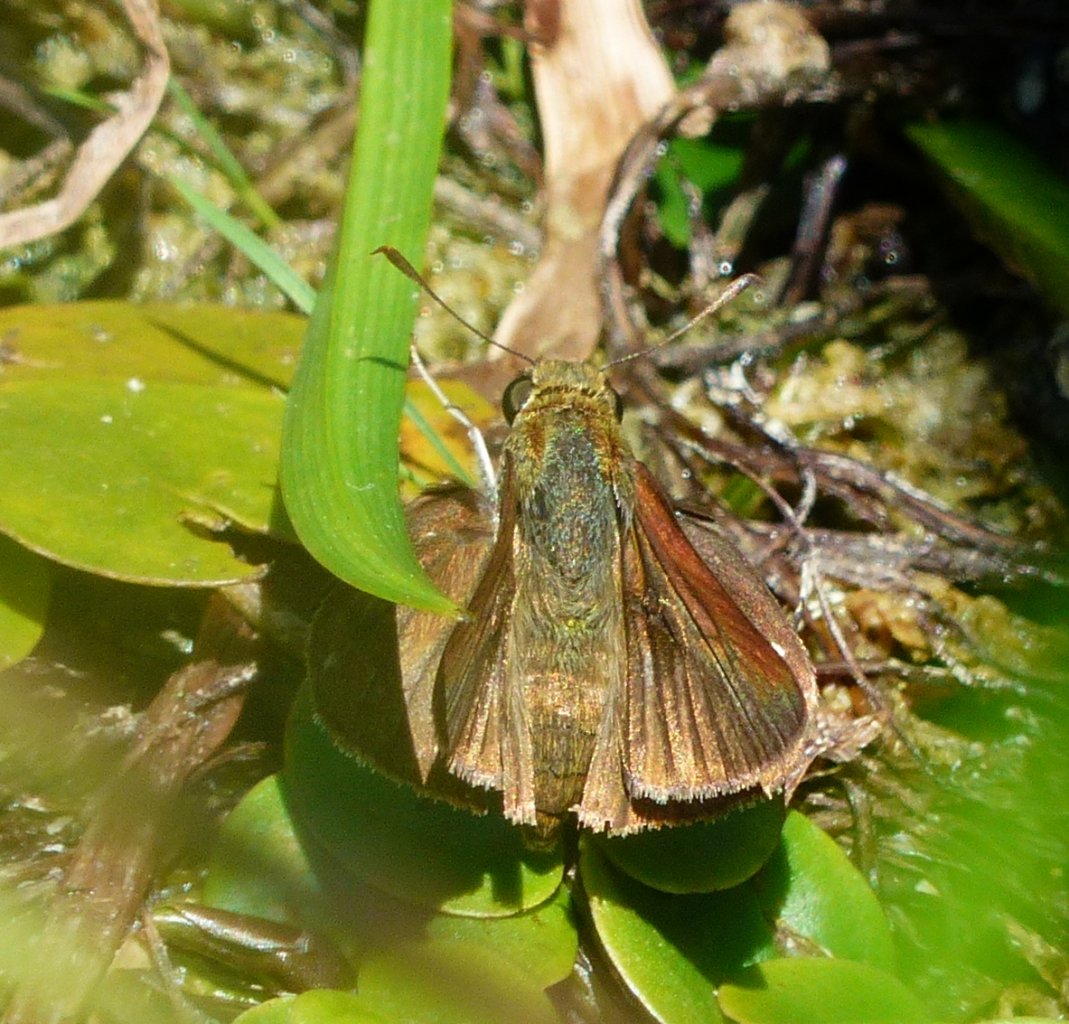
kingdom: Animalia
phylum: Arthropoda
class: Insecta
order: Lepidoptera
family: Hesperiidae
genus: Euphyes
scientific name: Euphyes vestris
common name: Dun Skipper
